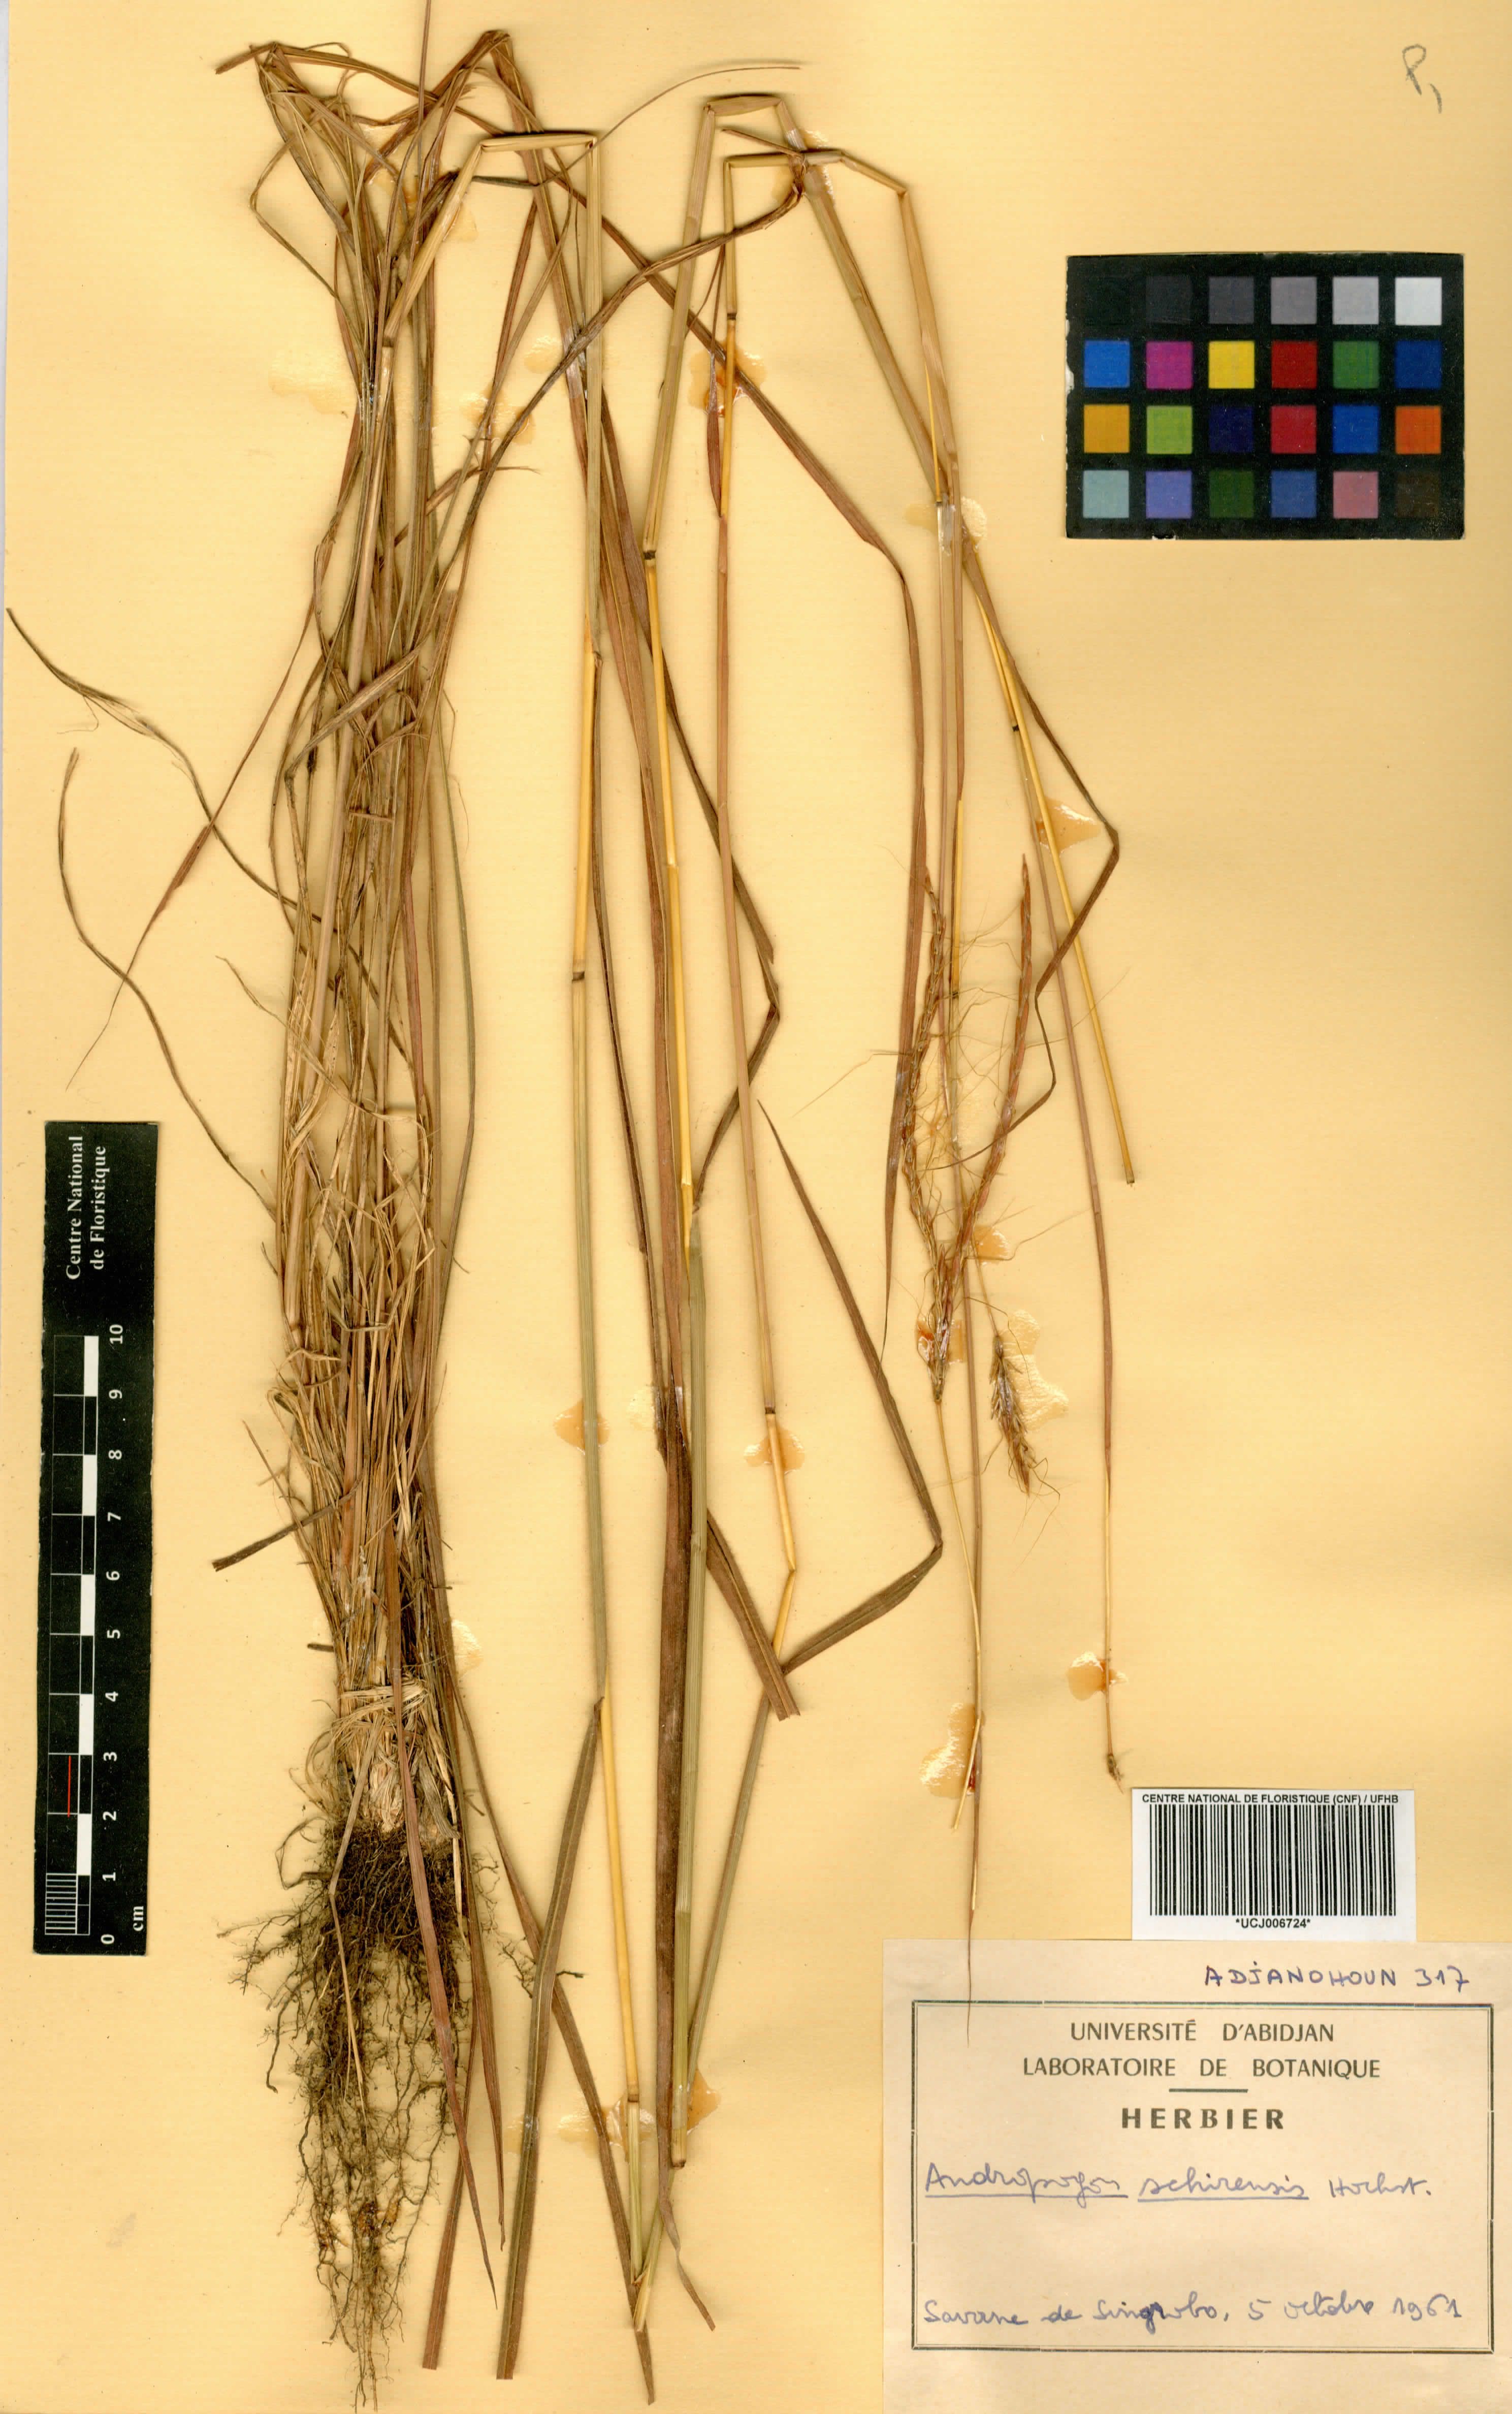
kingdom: Plantae
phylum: Tracheophyta
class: Liliopsida
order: Poales
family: Poaceae
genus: Andropogon
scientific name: Andropogon schirensis
